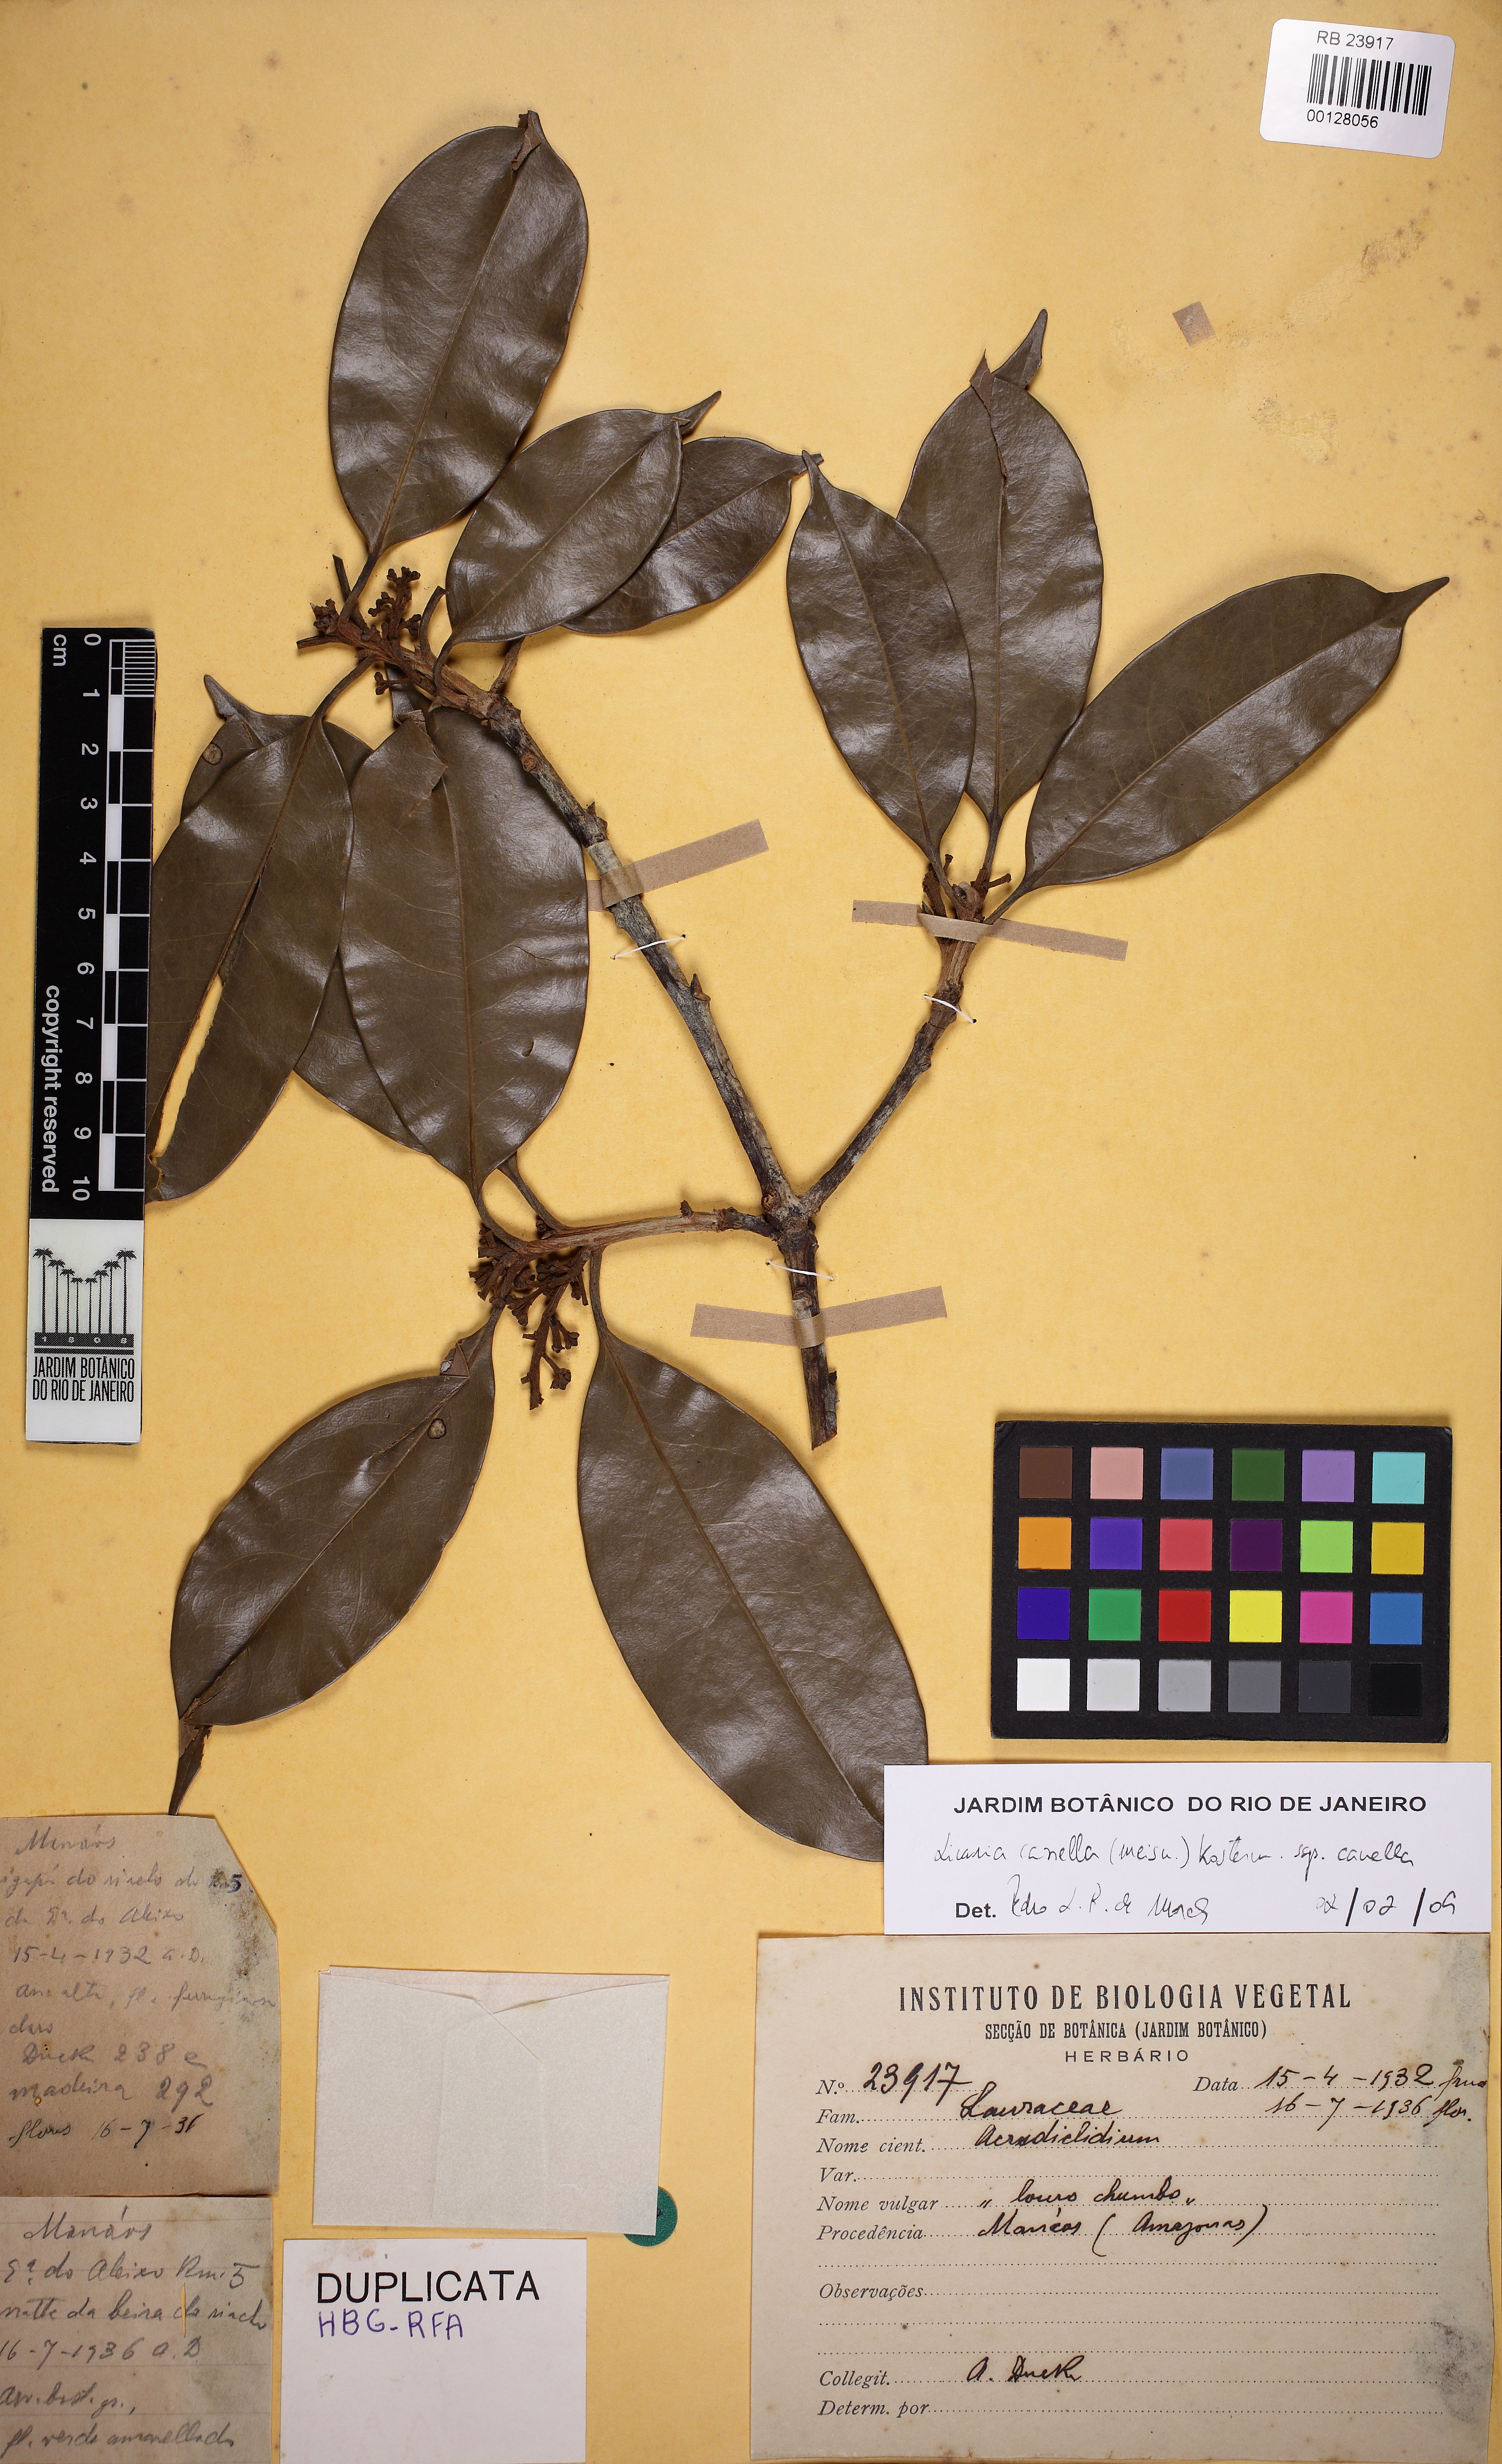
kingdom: Plantae
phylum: Tracheophyta
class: Magnoliopsida
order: Laurales
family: Lauraceae
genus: Licaria
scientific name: Licaria canella
